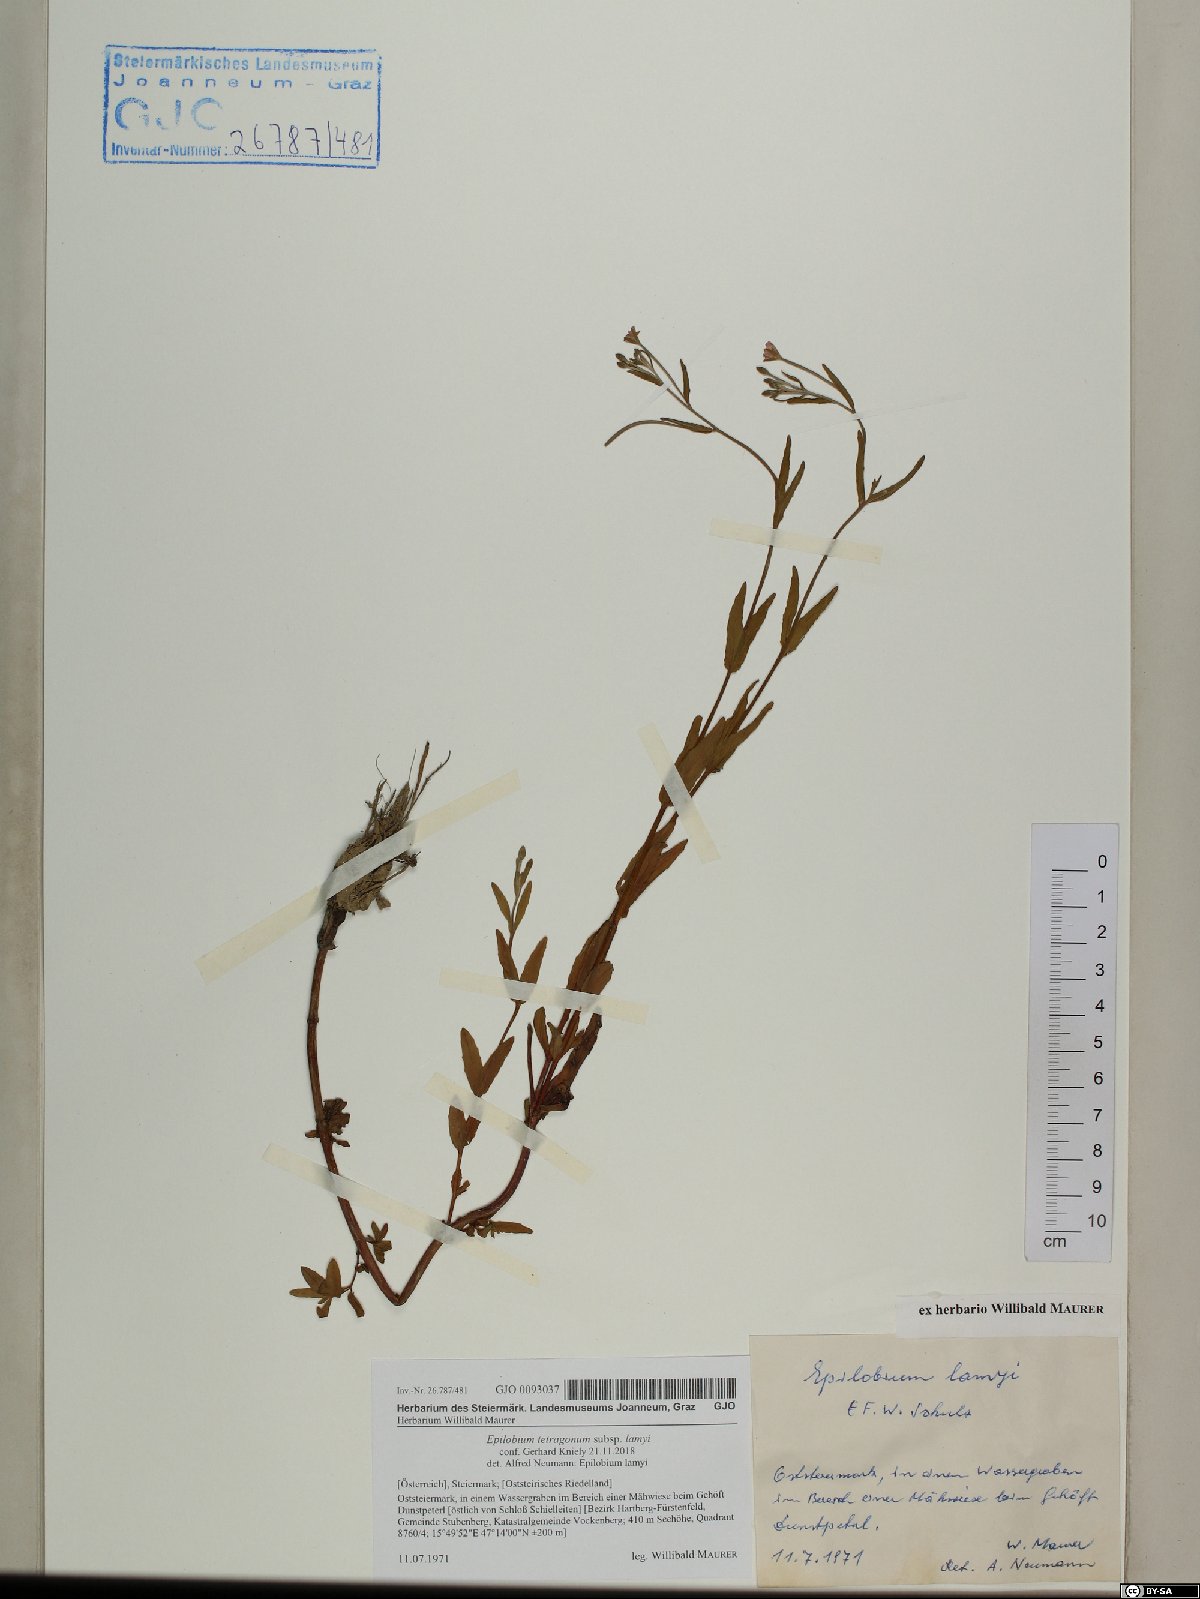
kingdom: Plantae
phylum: Tracheophyta
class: Magnoliopsida
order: Myrtales
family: Onagraceae
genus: Epilobium
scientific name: Epilobium lamyi
